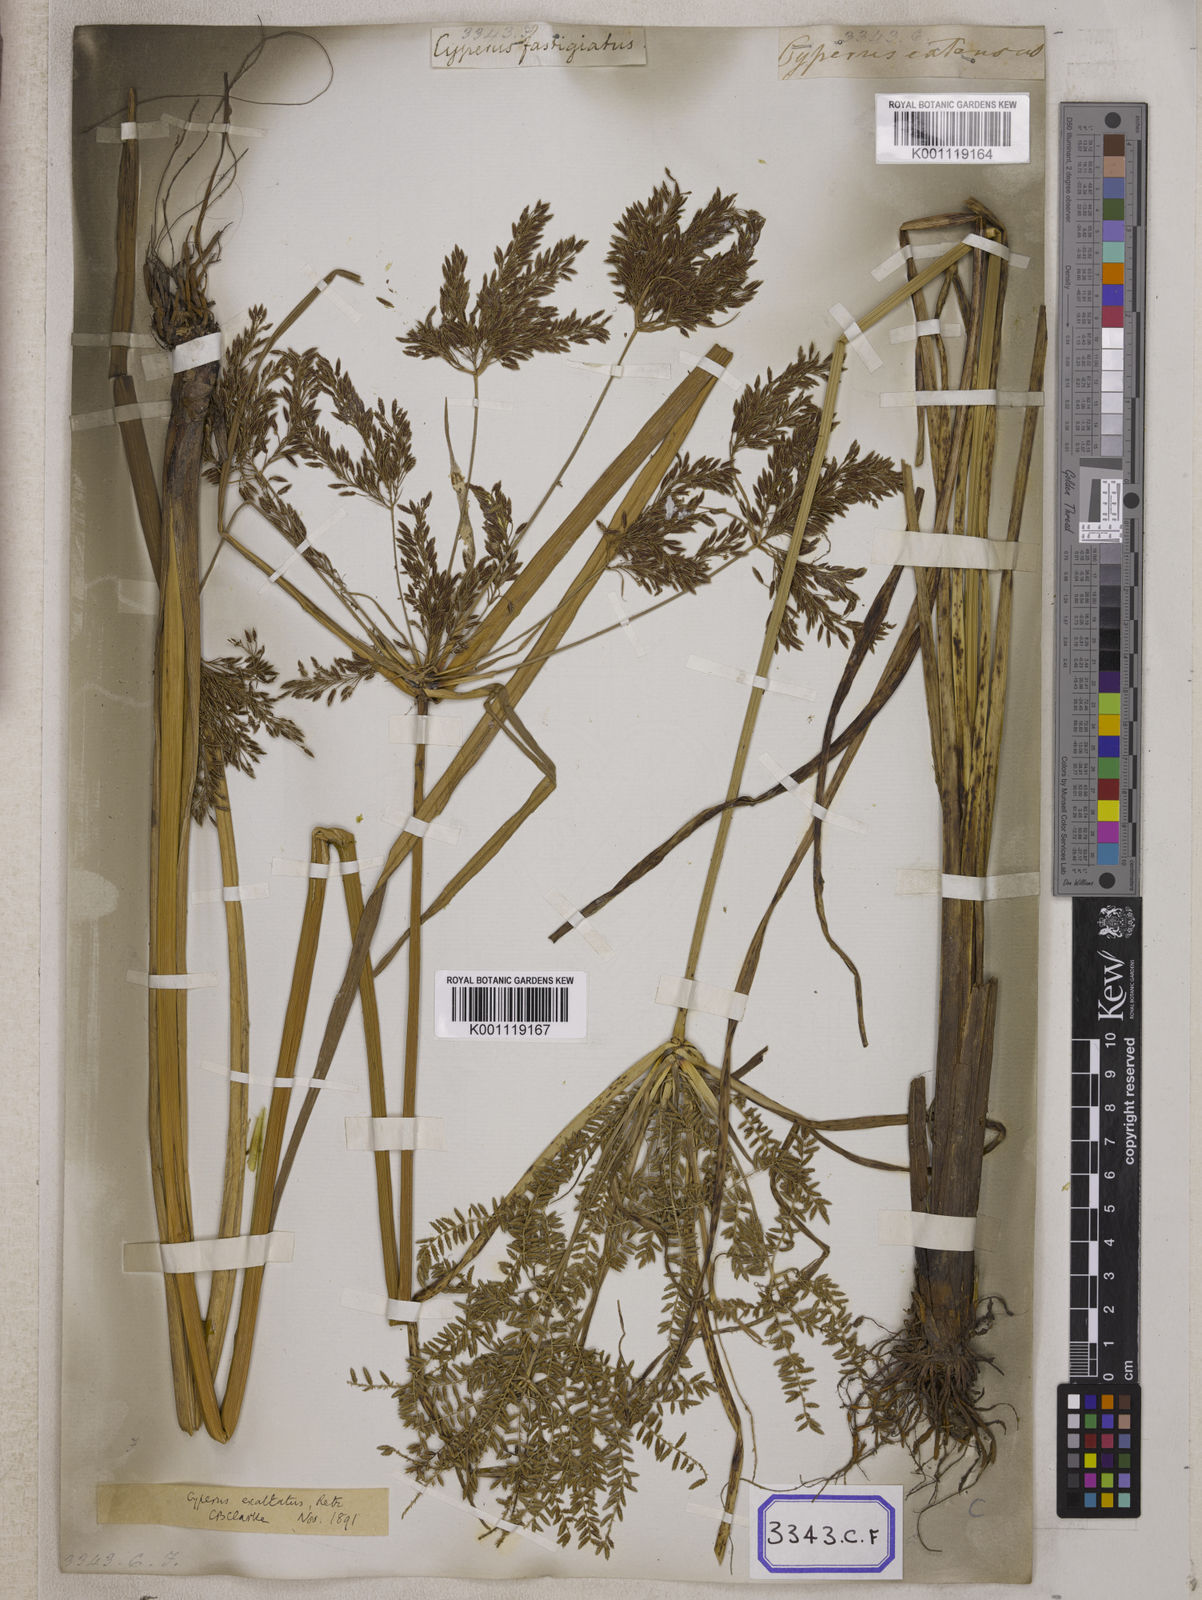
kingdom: Plantae
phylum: Tracheophyta
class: Liliopsida
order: Poales
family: Cyperaceae
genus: Cyperus
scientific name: Cyperus
